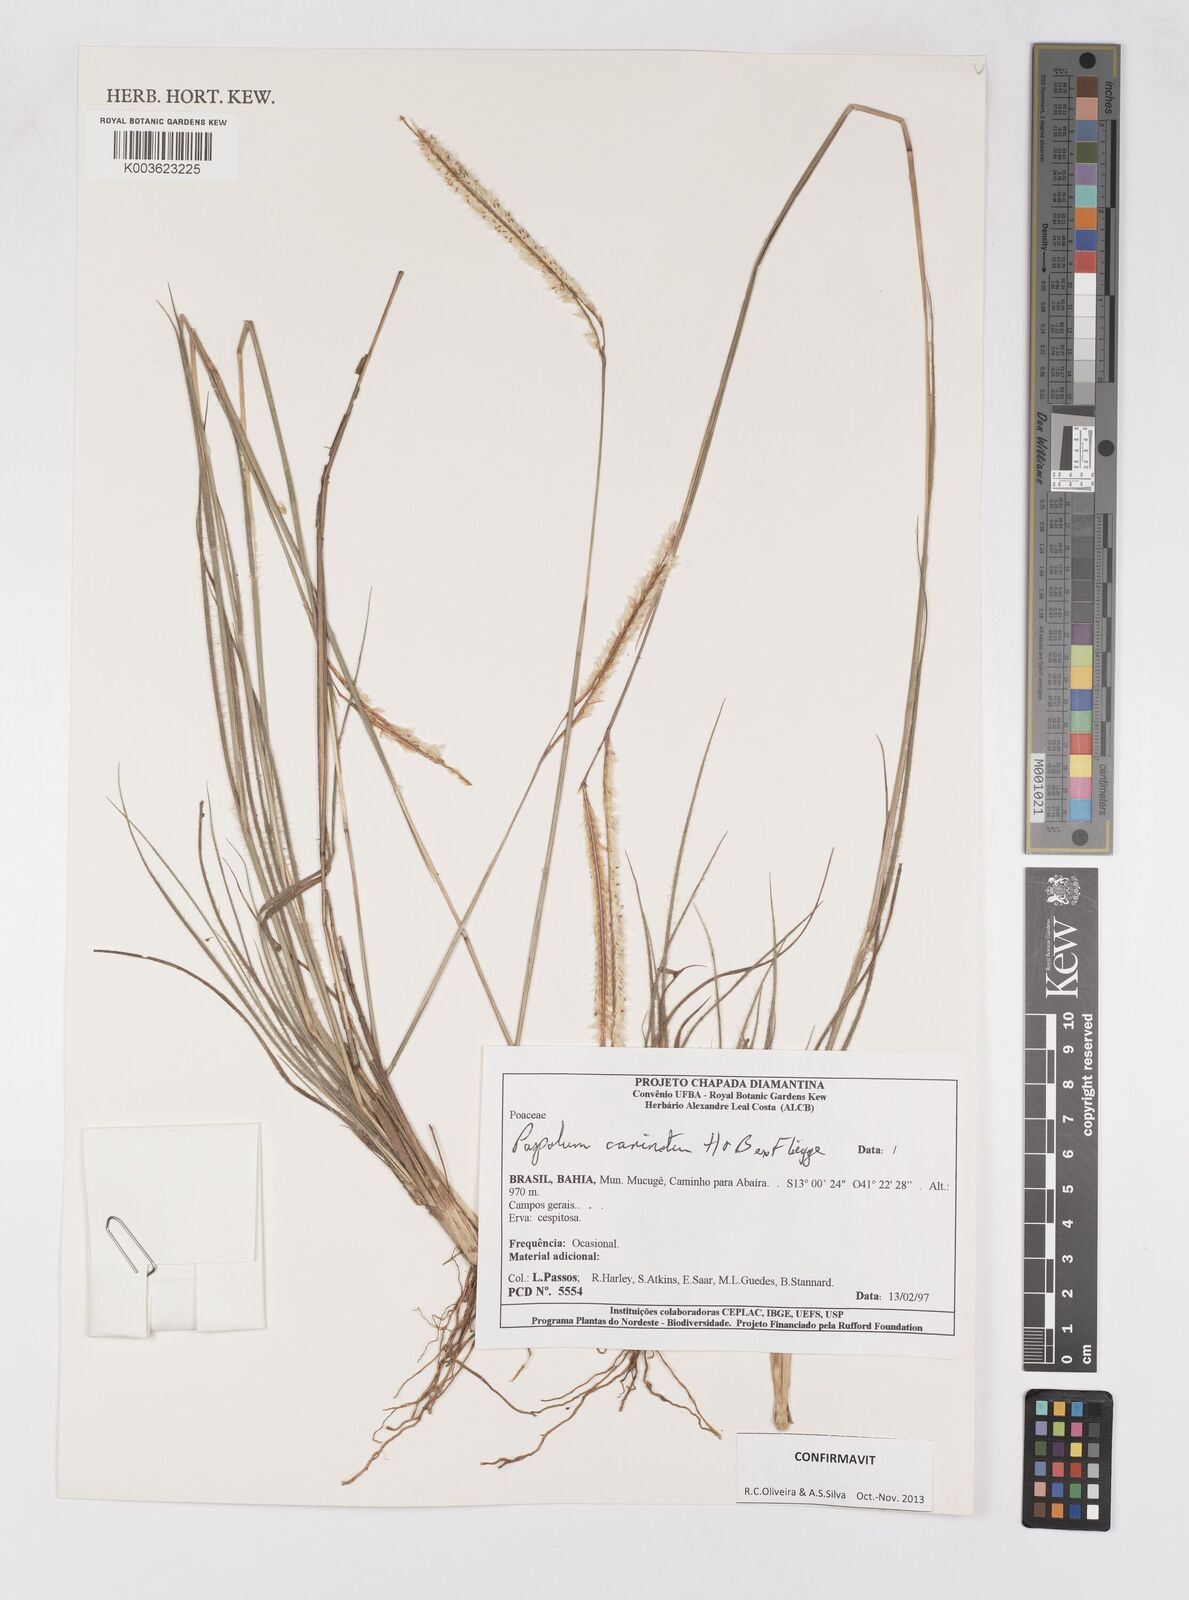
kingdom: Plantae
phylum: Tracheophyta
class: Liliopsida
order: Poales
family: Poaceae
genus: Paspalum
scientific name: Paspalum carinatum
